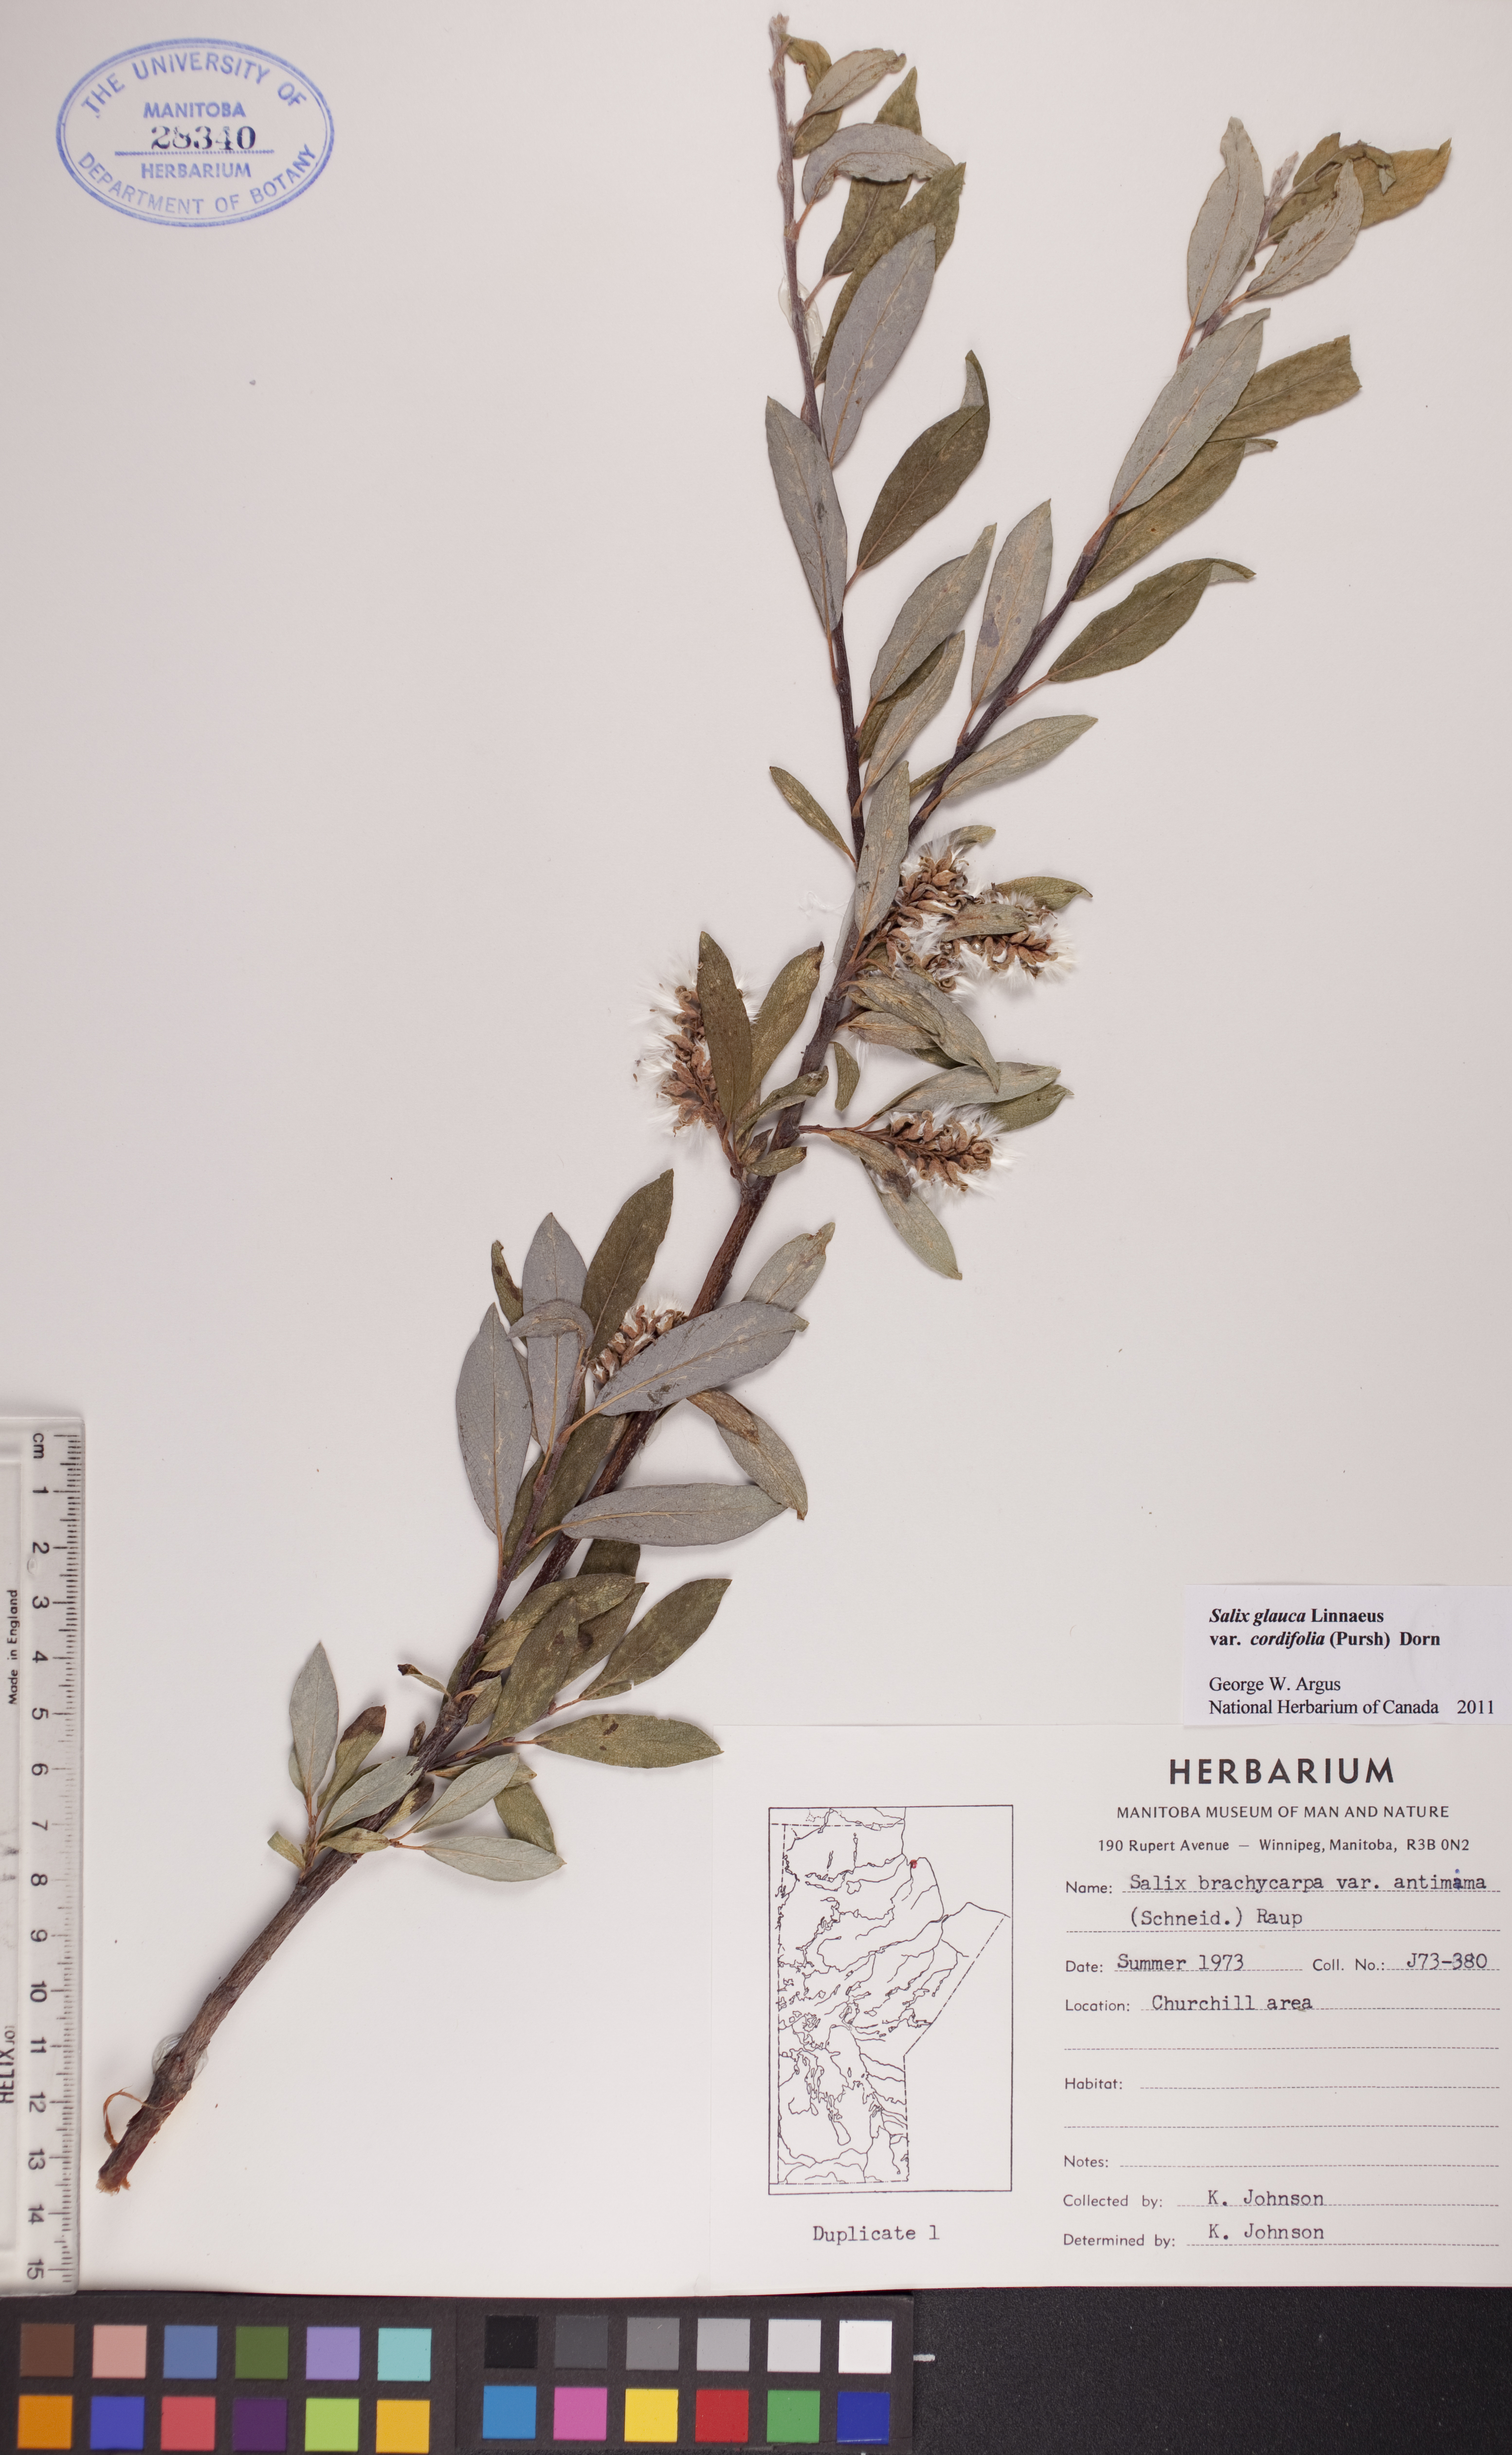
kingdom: Plantae
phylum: Tracheophyta
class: Magnoliopsida
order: Malpighiales
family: Salicaceae
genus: Salix
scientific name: Salix glauca
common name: Glaucous willow
